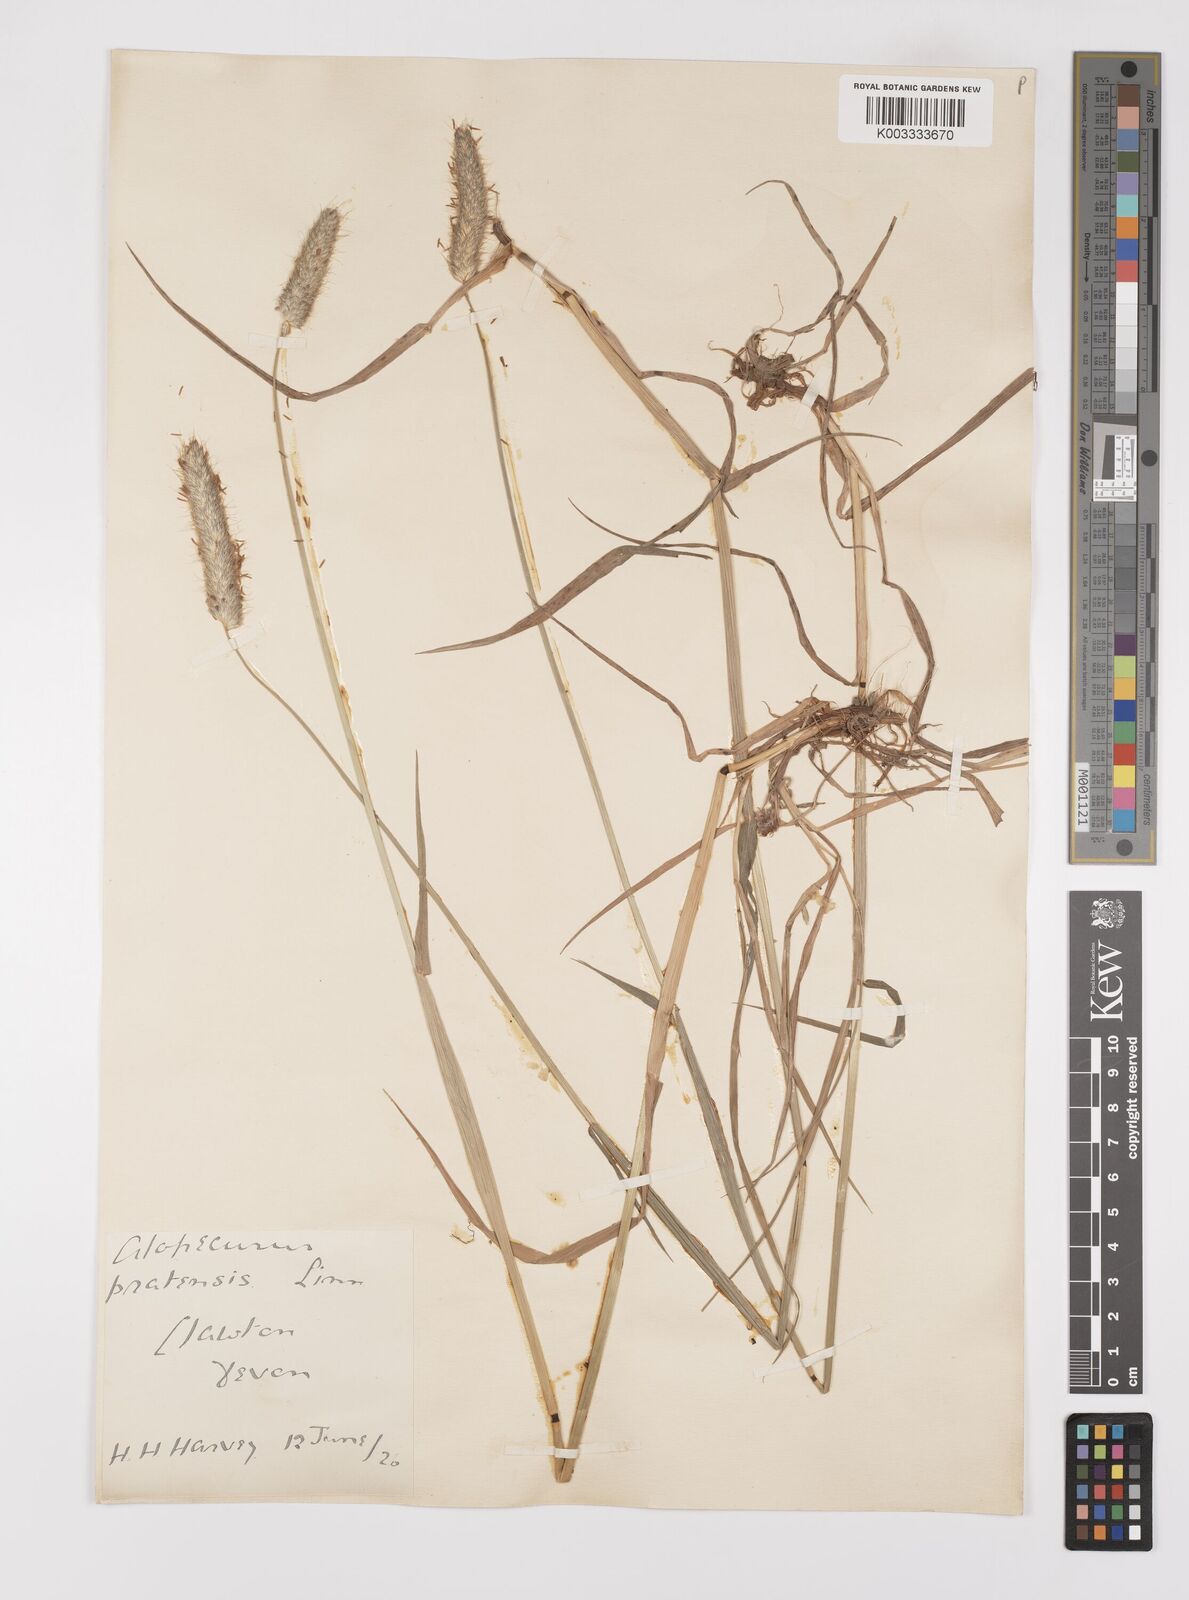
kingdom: Plantae
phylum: Tracheophyta
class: Liliopsida
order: Poales
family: Poaceae
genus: Alopecurus
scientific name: Alopecurus pratensis
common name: Meadow foxtail
